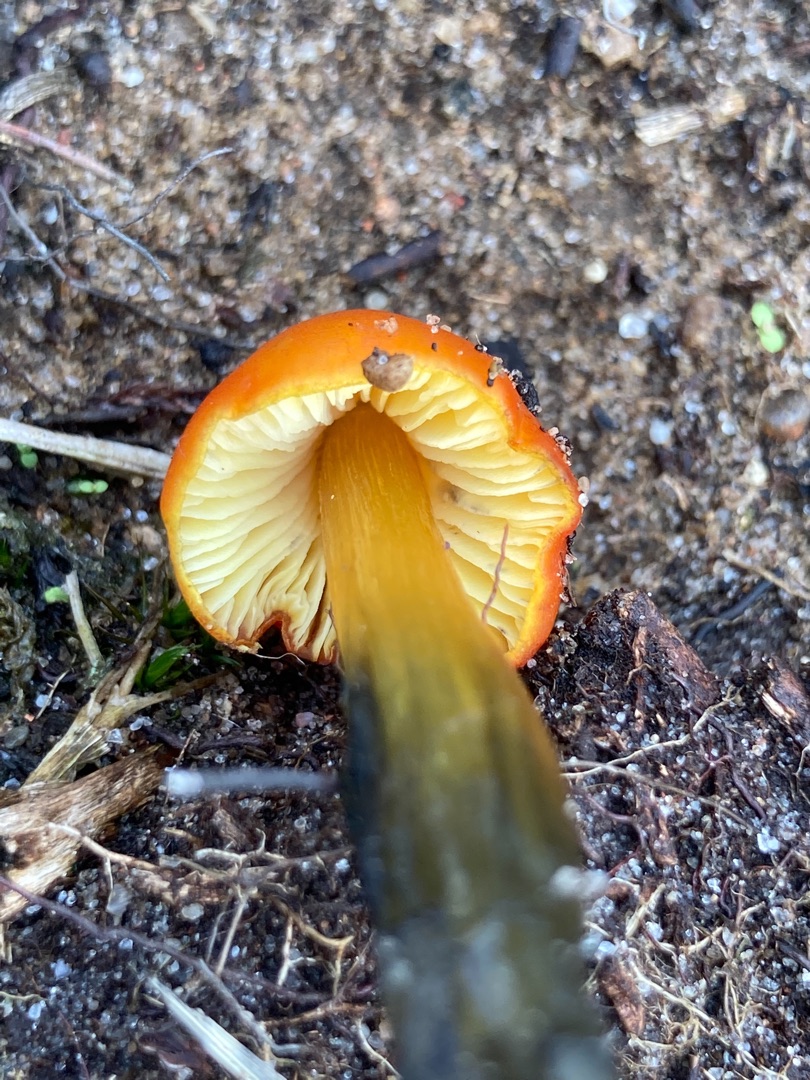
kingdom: Fungi
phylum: Basidiomycota
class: Agaricomycetes
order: Agaricales
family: Hygrophoraceae
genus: Hygrocybe
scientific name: Hygrocybe conica
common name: Kegle-vokshat
